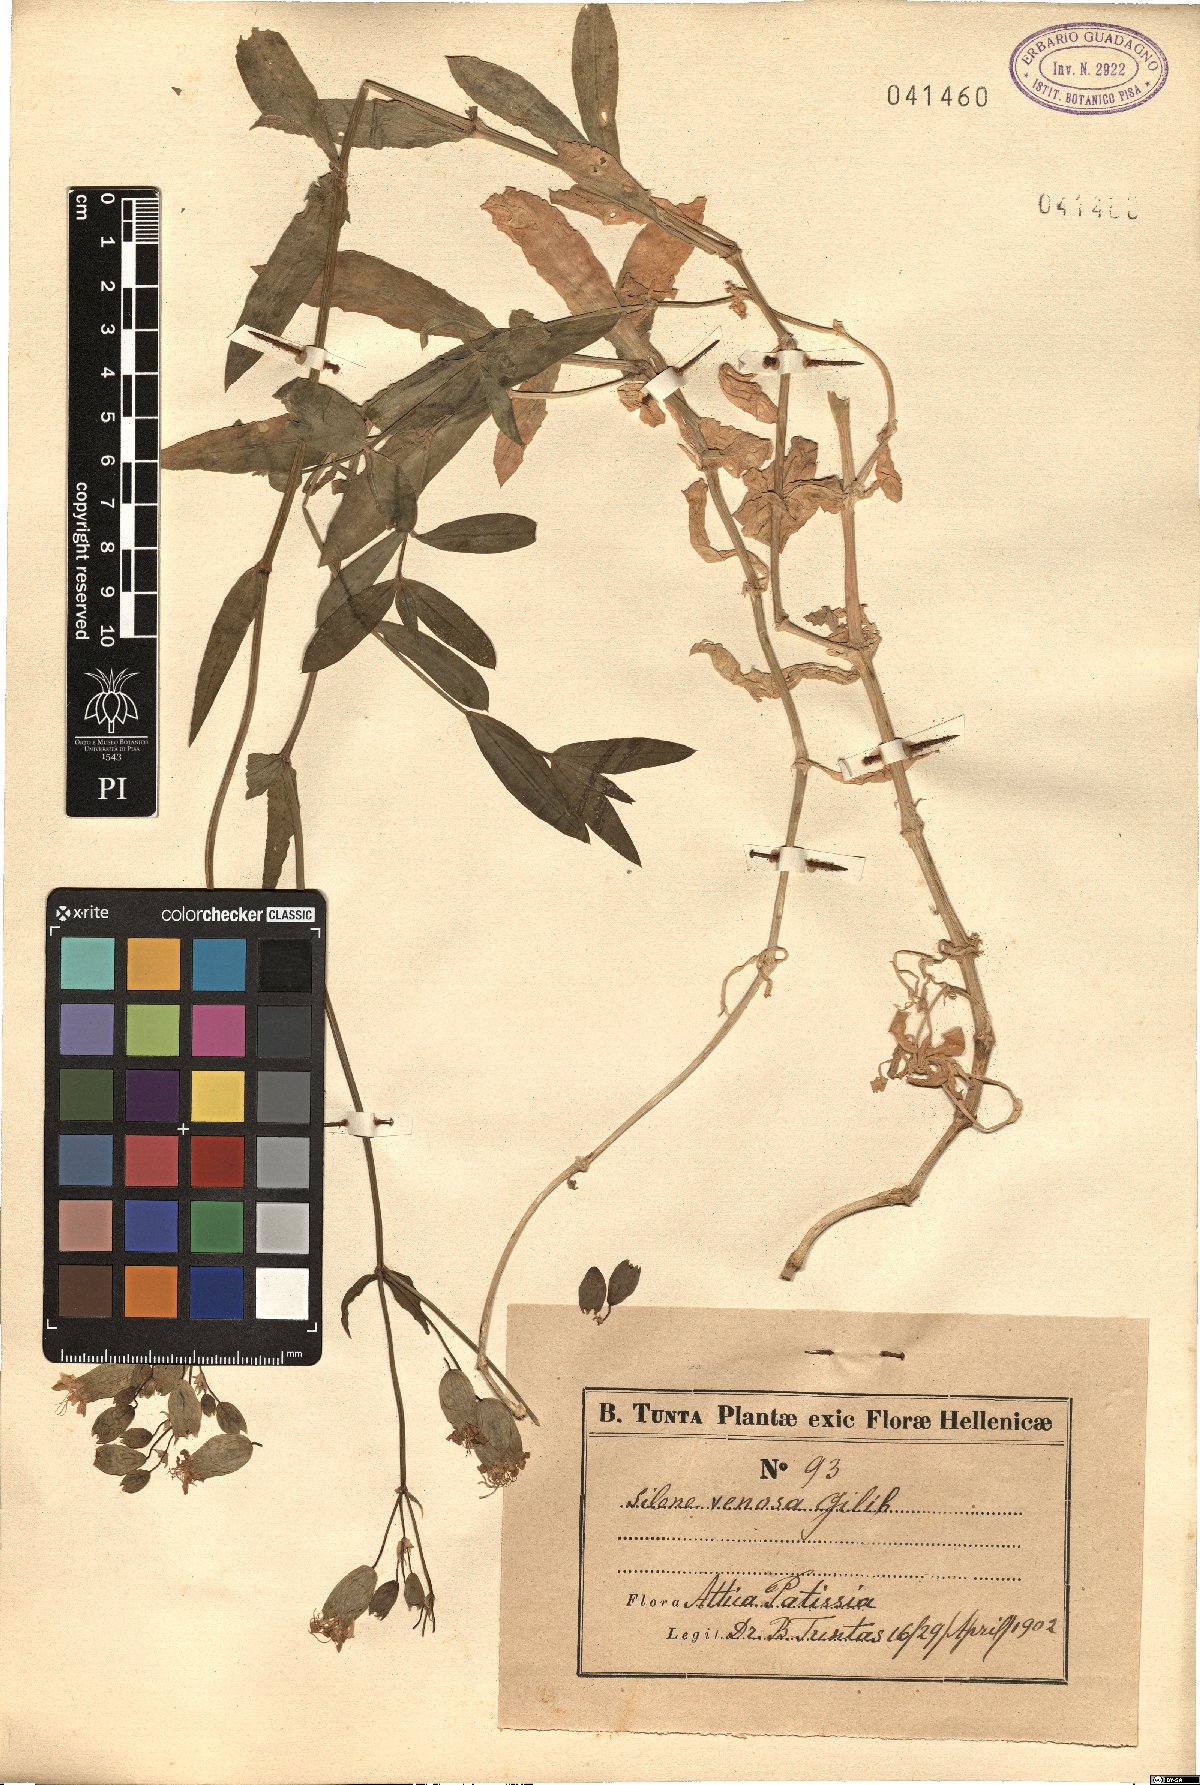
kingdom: Plantae
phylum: Tracheophyta
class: Magnoliopsida
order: Caryophyllales
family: Caryophyllaceae
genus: Silene
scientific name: Silene vulgaris
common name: Bladder campion
